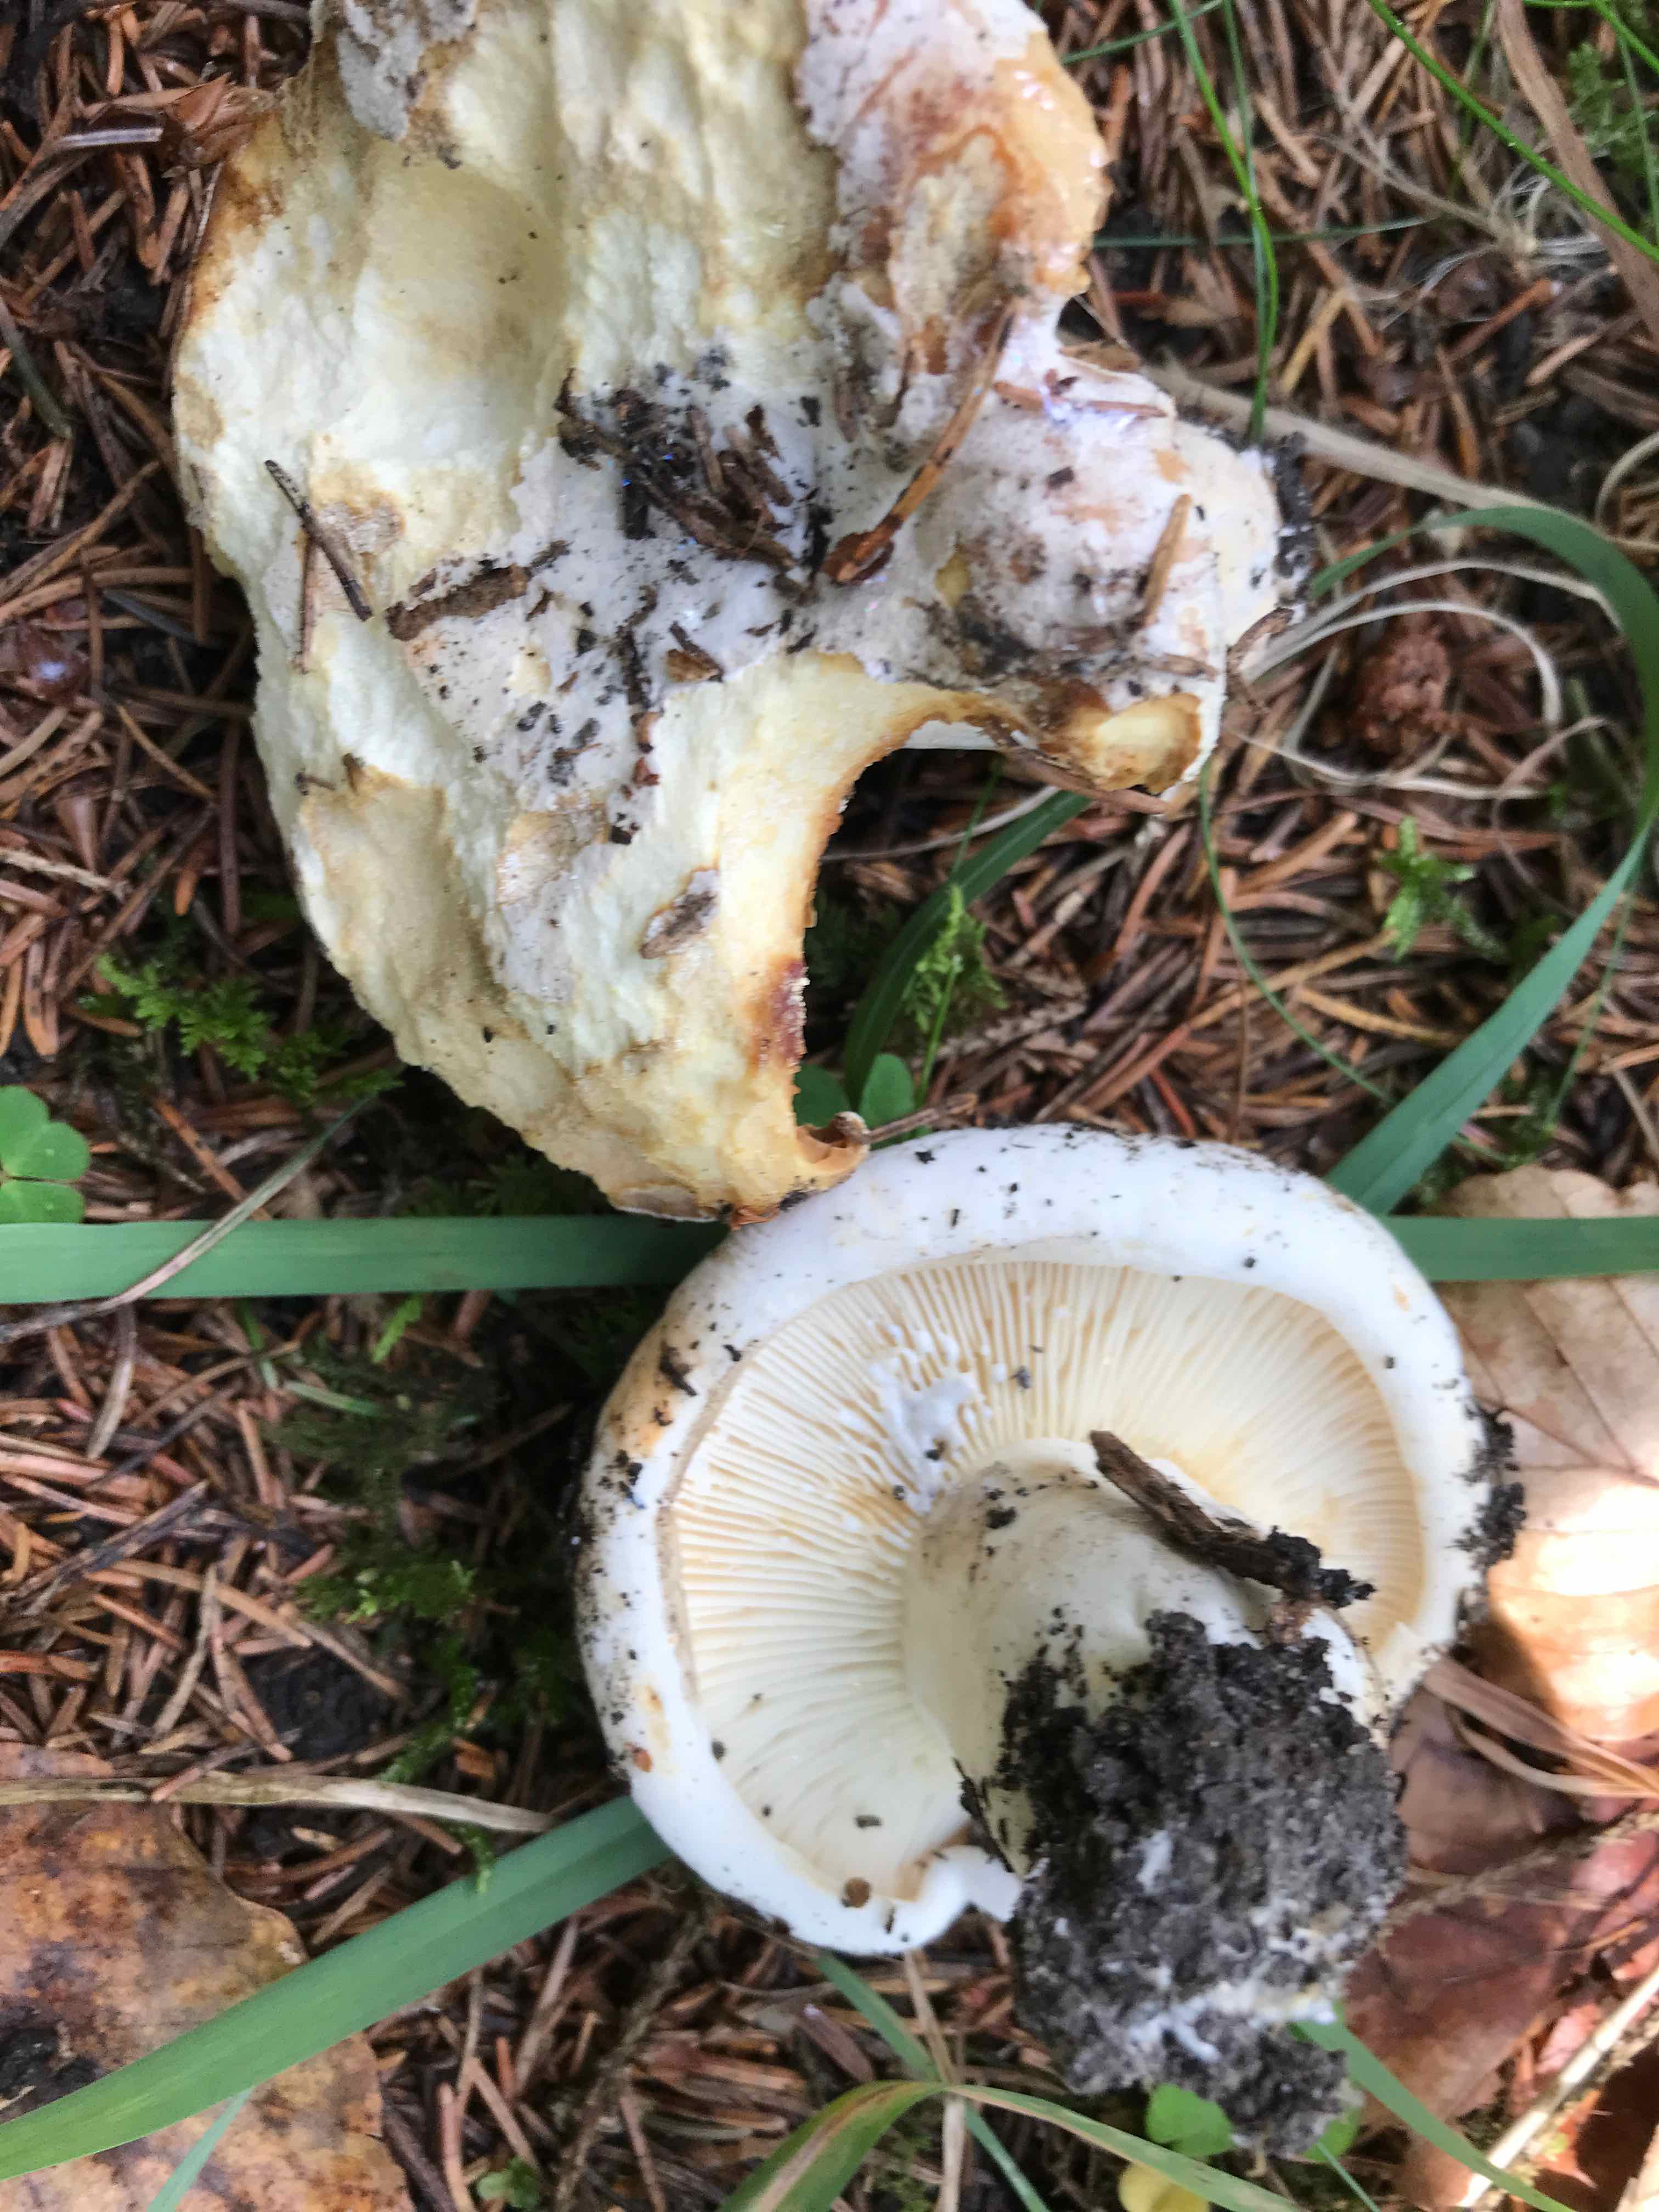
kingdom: Fungi
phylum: Basidiomycota
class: Agaricomycetes
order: Russulales
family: Russulaceae
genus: Lactifluus
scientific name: Lactifluus bertillonii
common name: blødfiltet mælkehat
